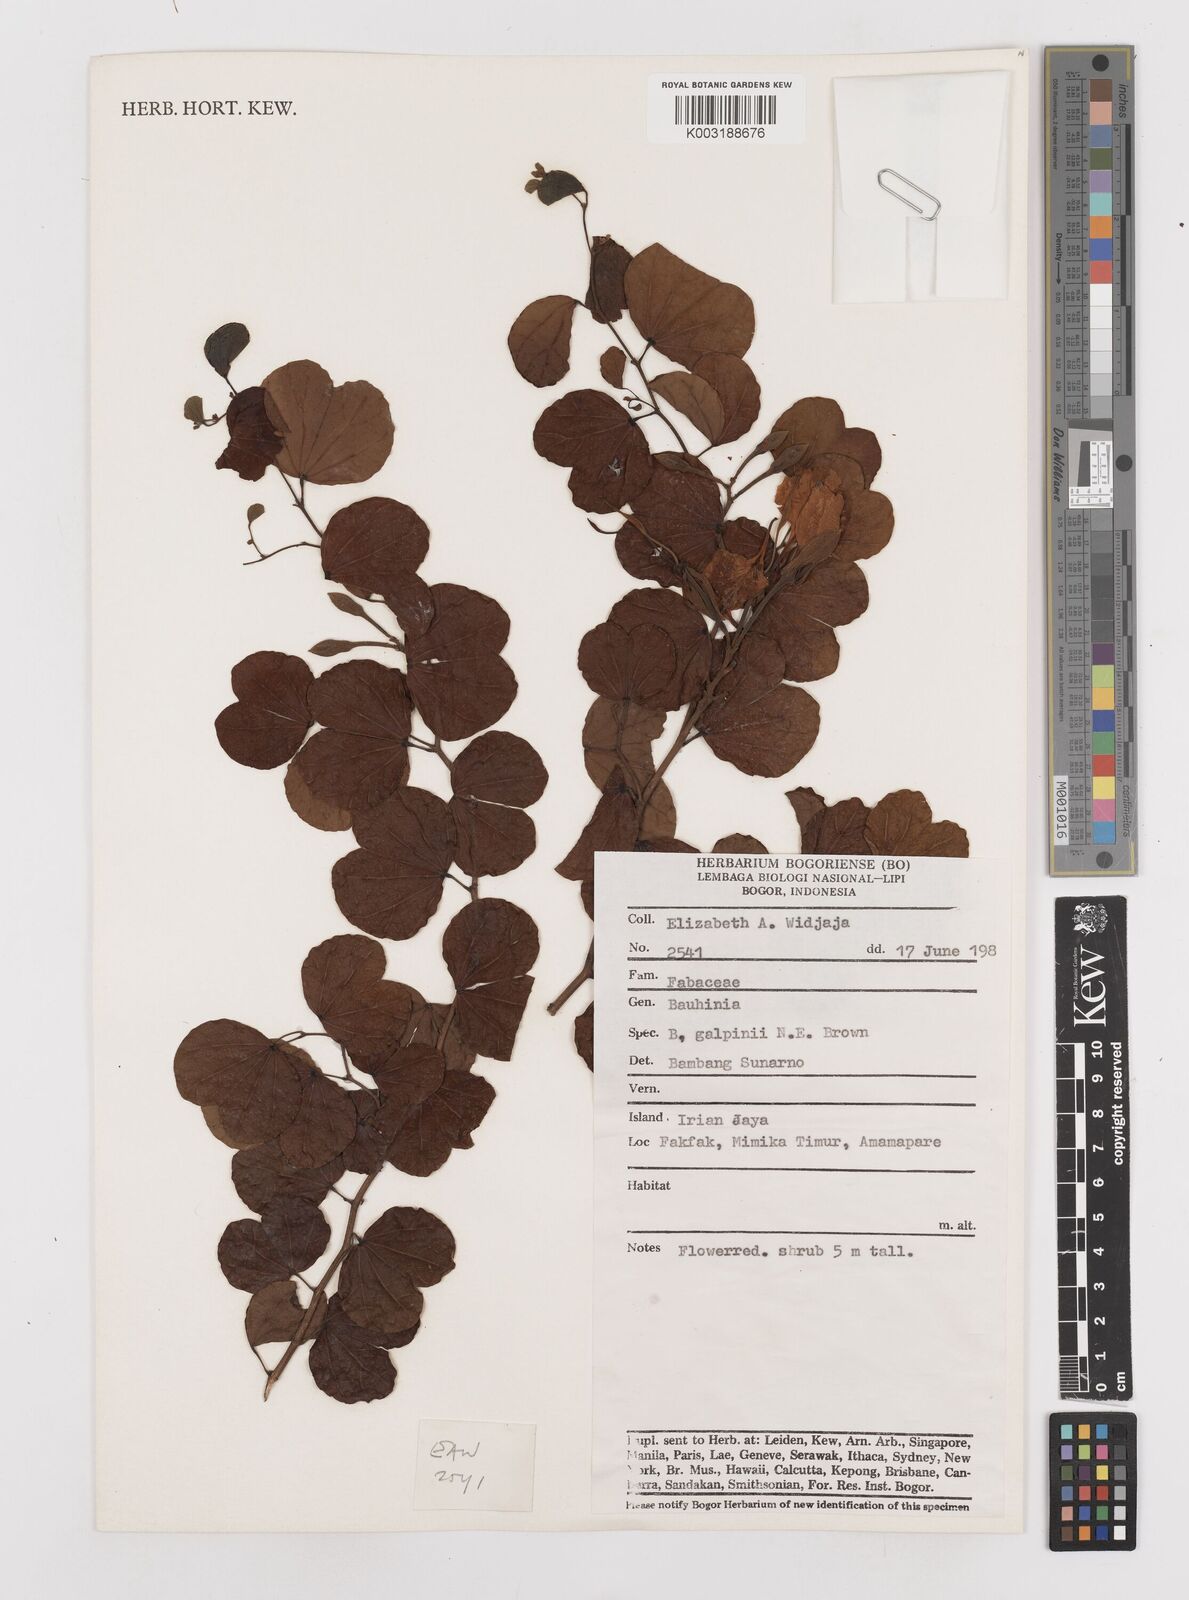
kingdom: Plantae
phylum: Tracheophyta
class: Magnoliopsida
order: Fabales
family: Fabaceae
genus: Bauhinia
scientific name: Bauhinia galpinii
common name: African plume
